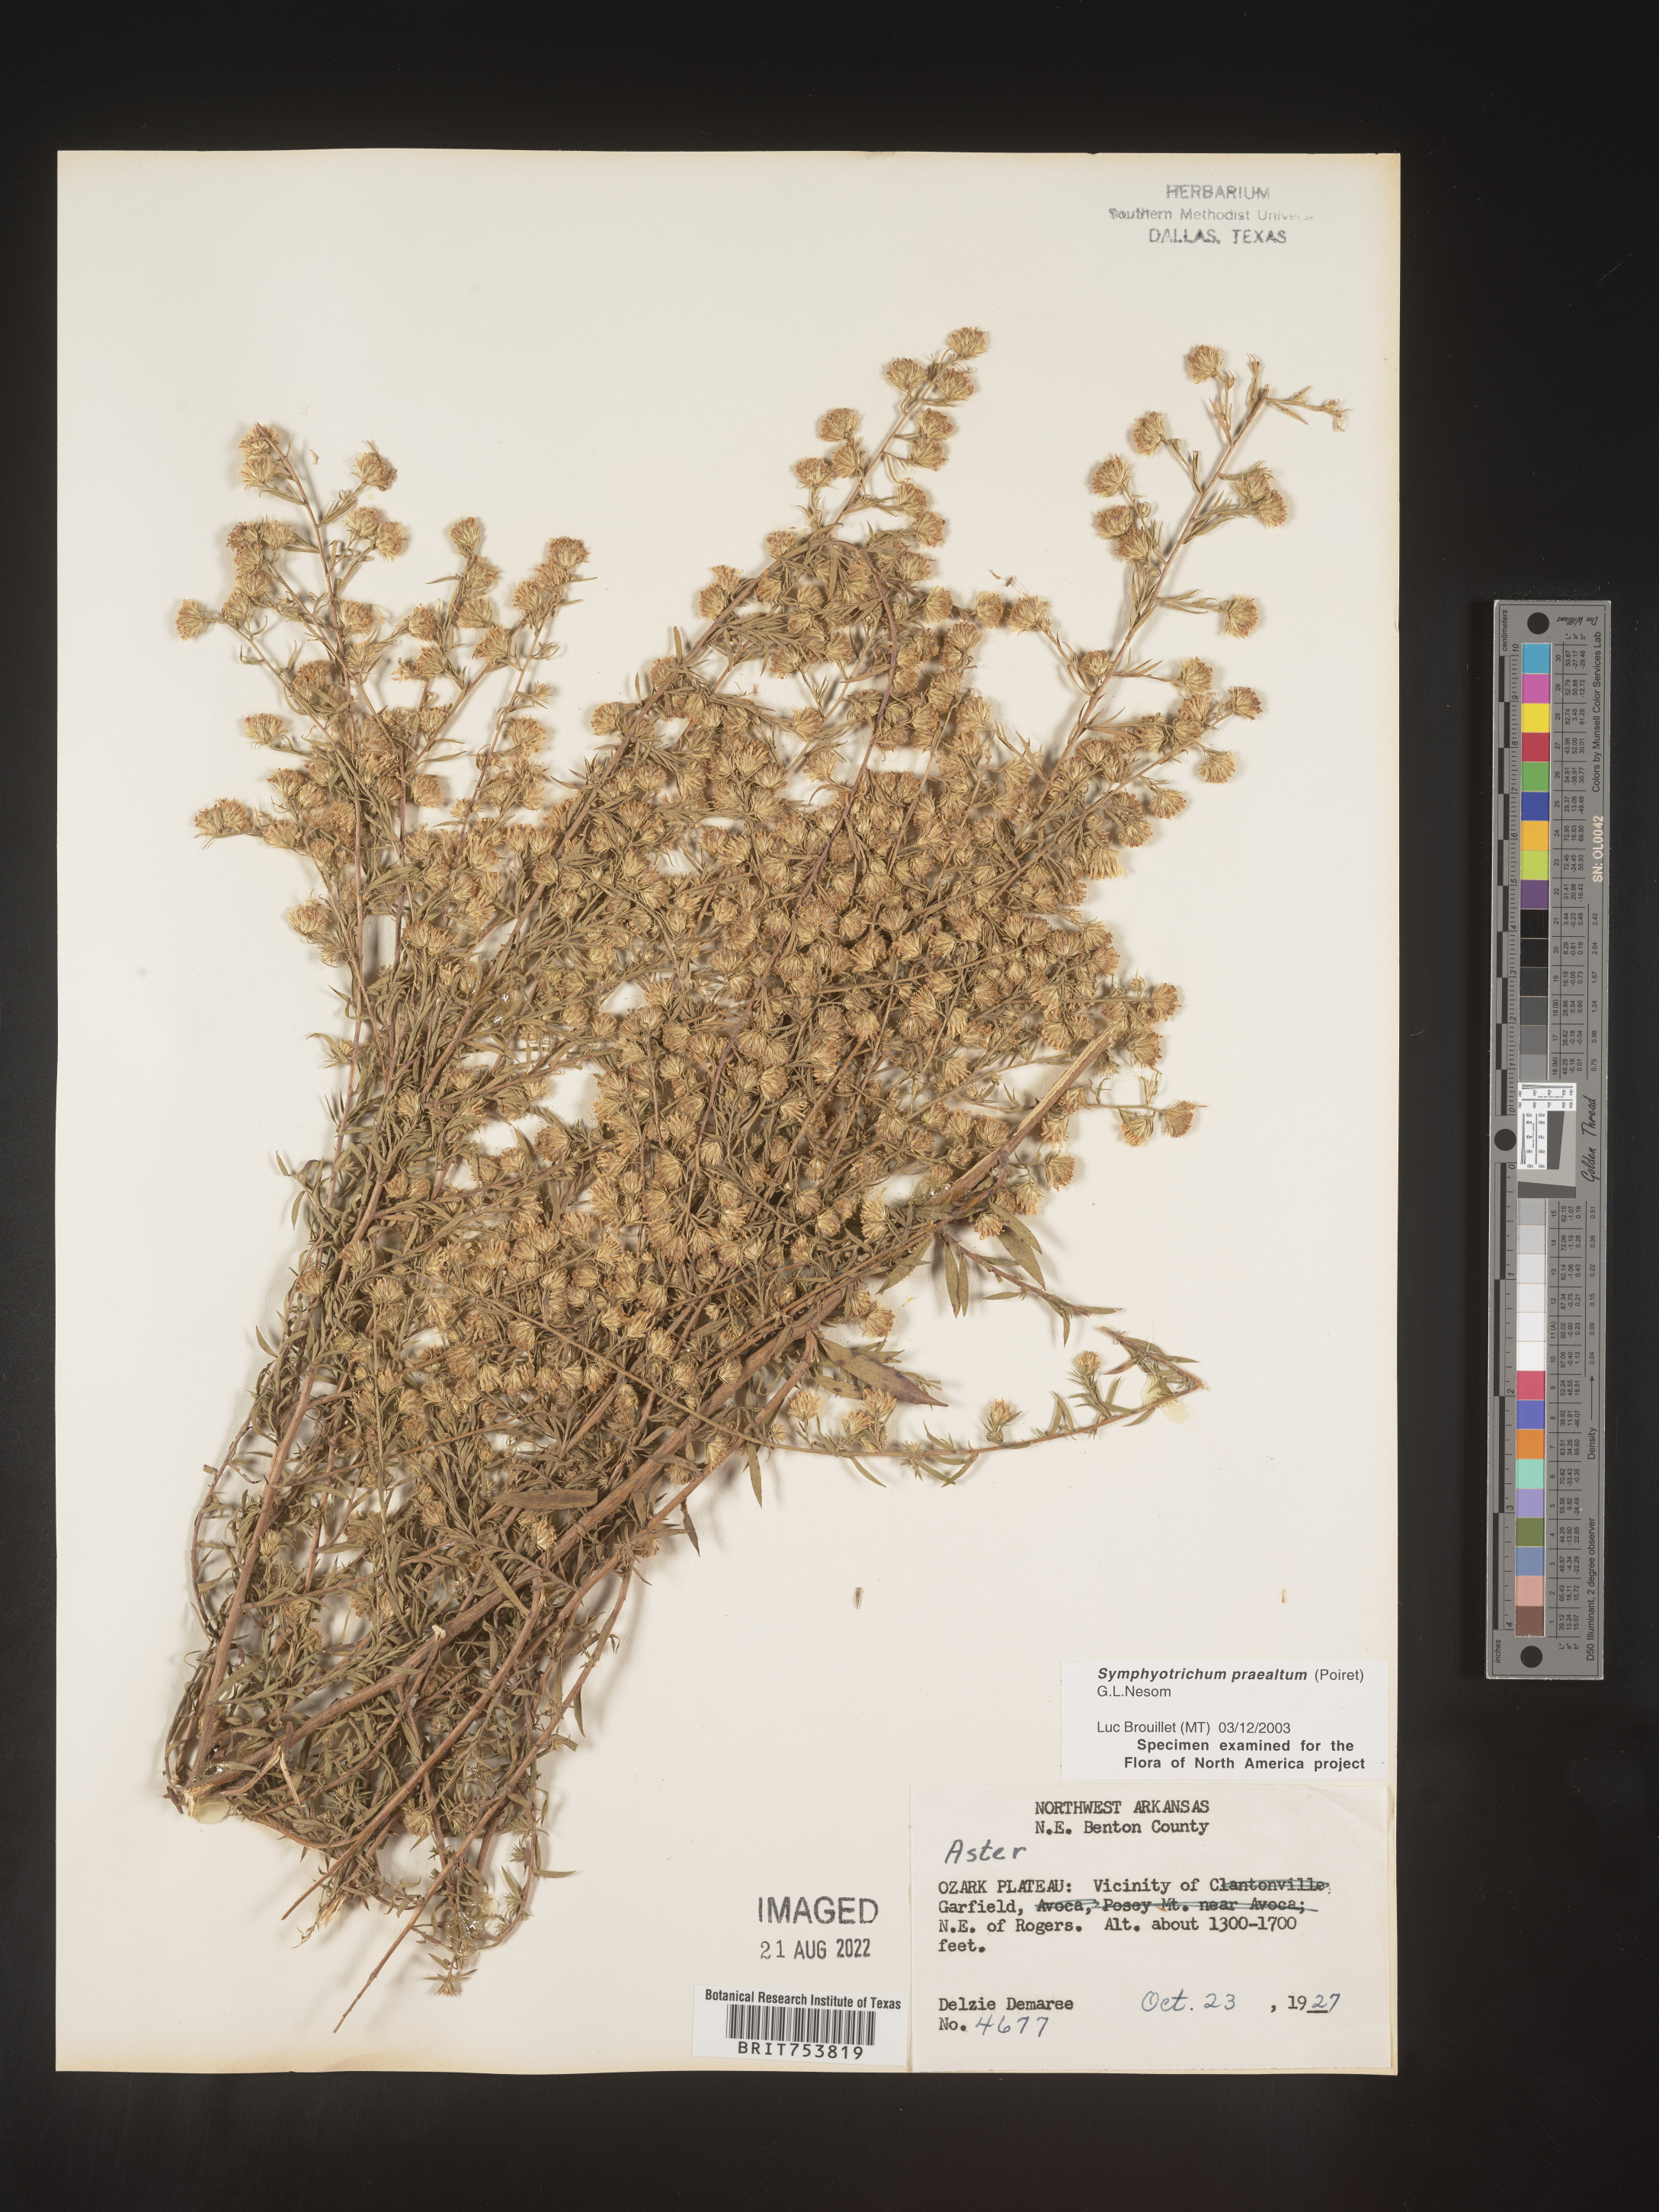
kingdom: Plantae
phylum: Tracheophyta
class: Magnoliopsida
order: Asterales
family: Asteraceae
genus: Symphyotrichum
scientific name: Symphyotrichum praealtum
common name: Willow aster
